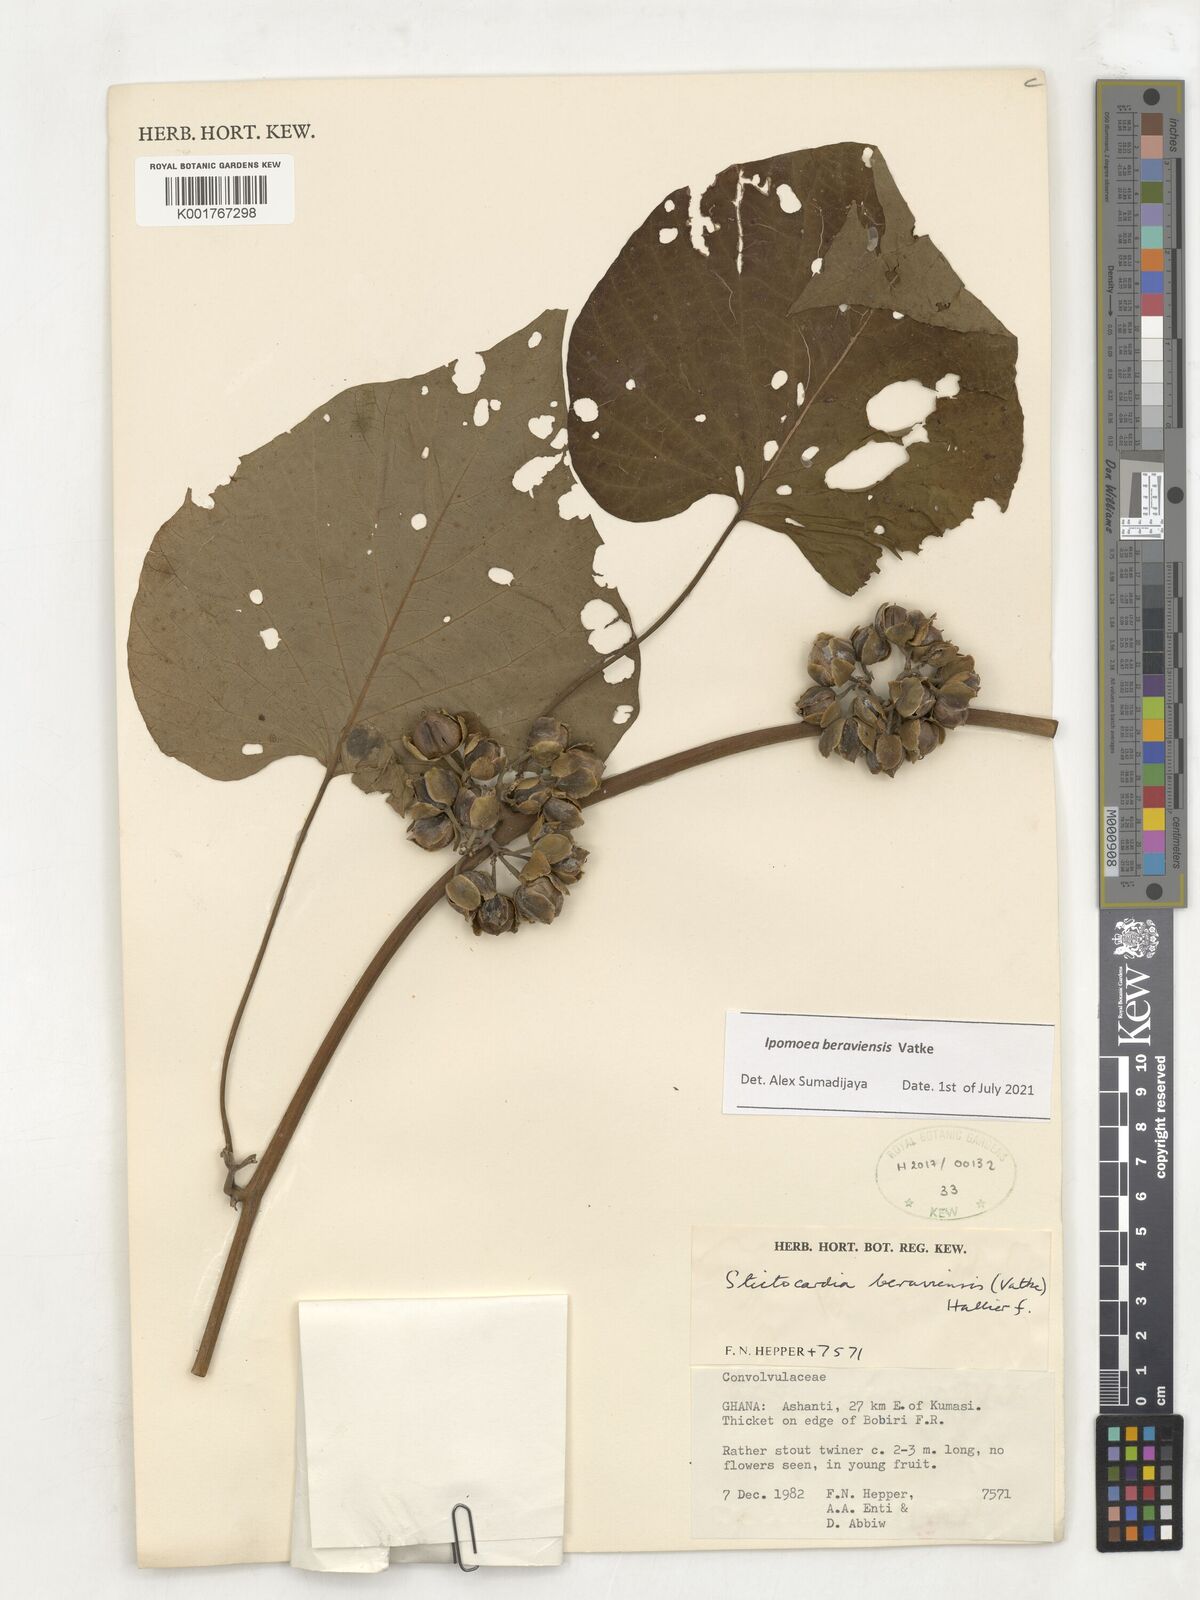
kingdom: Plantae
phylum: Tracheophyta
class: Magnoliopsida
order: Solanales
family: Convolvulaceae
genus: Stictocardia
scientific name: Stictocardia beraviensis
